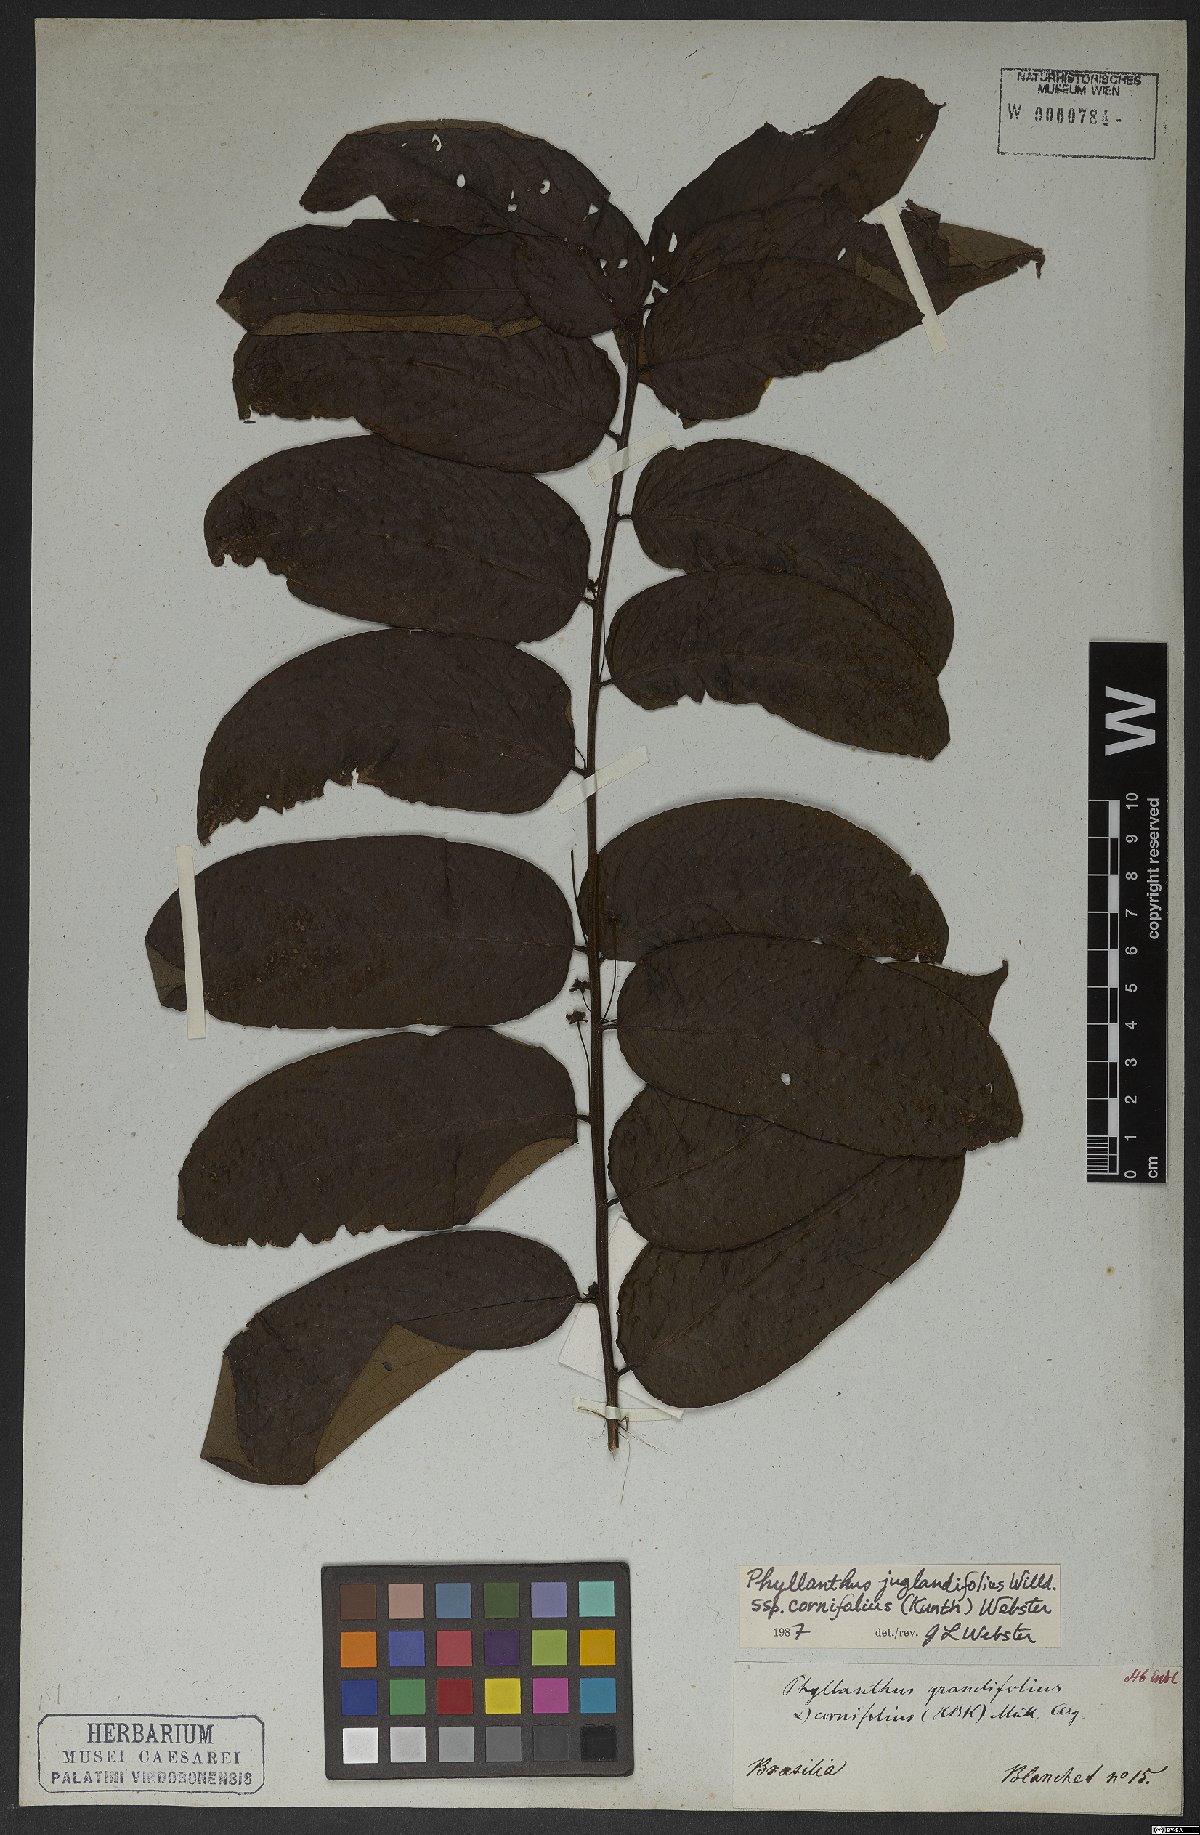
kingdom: Plantae
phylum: Tracheophyta
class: Magnoliopsida
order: Malpighiales
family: Phyllanthaceae
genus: Phyllanthus
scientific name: Phyllanthus grandifolius
